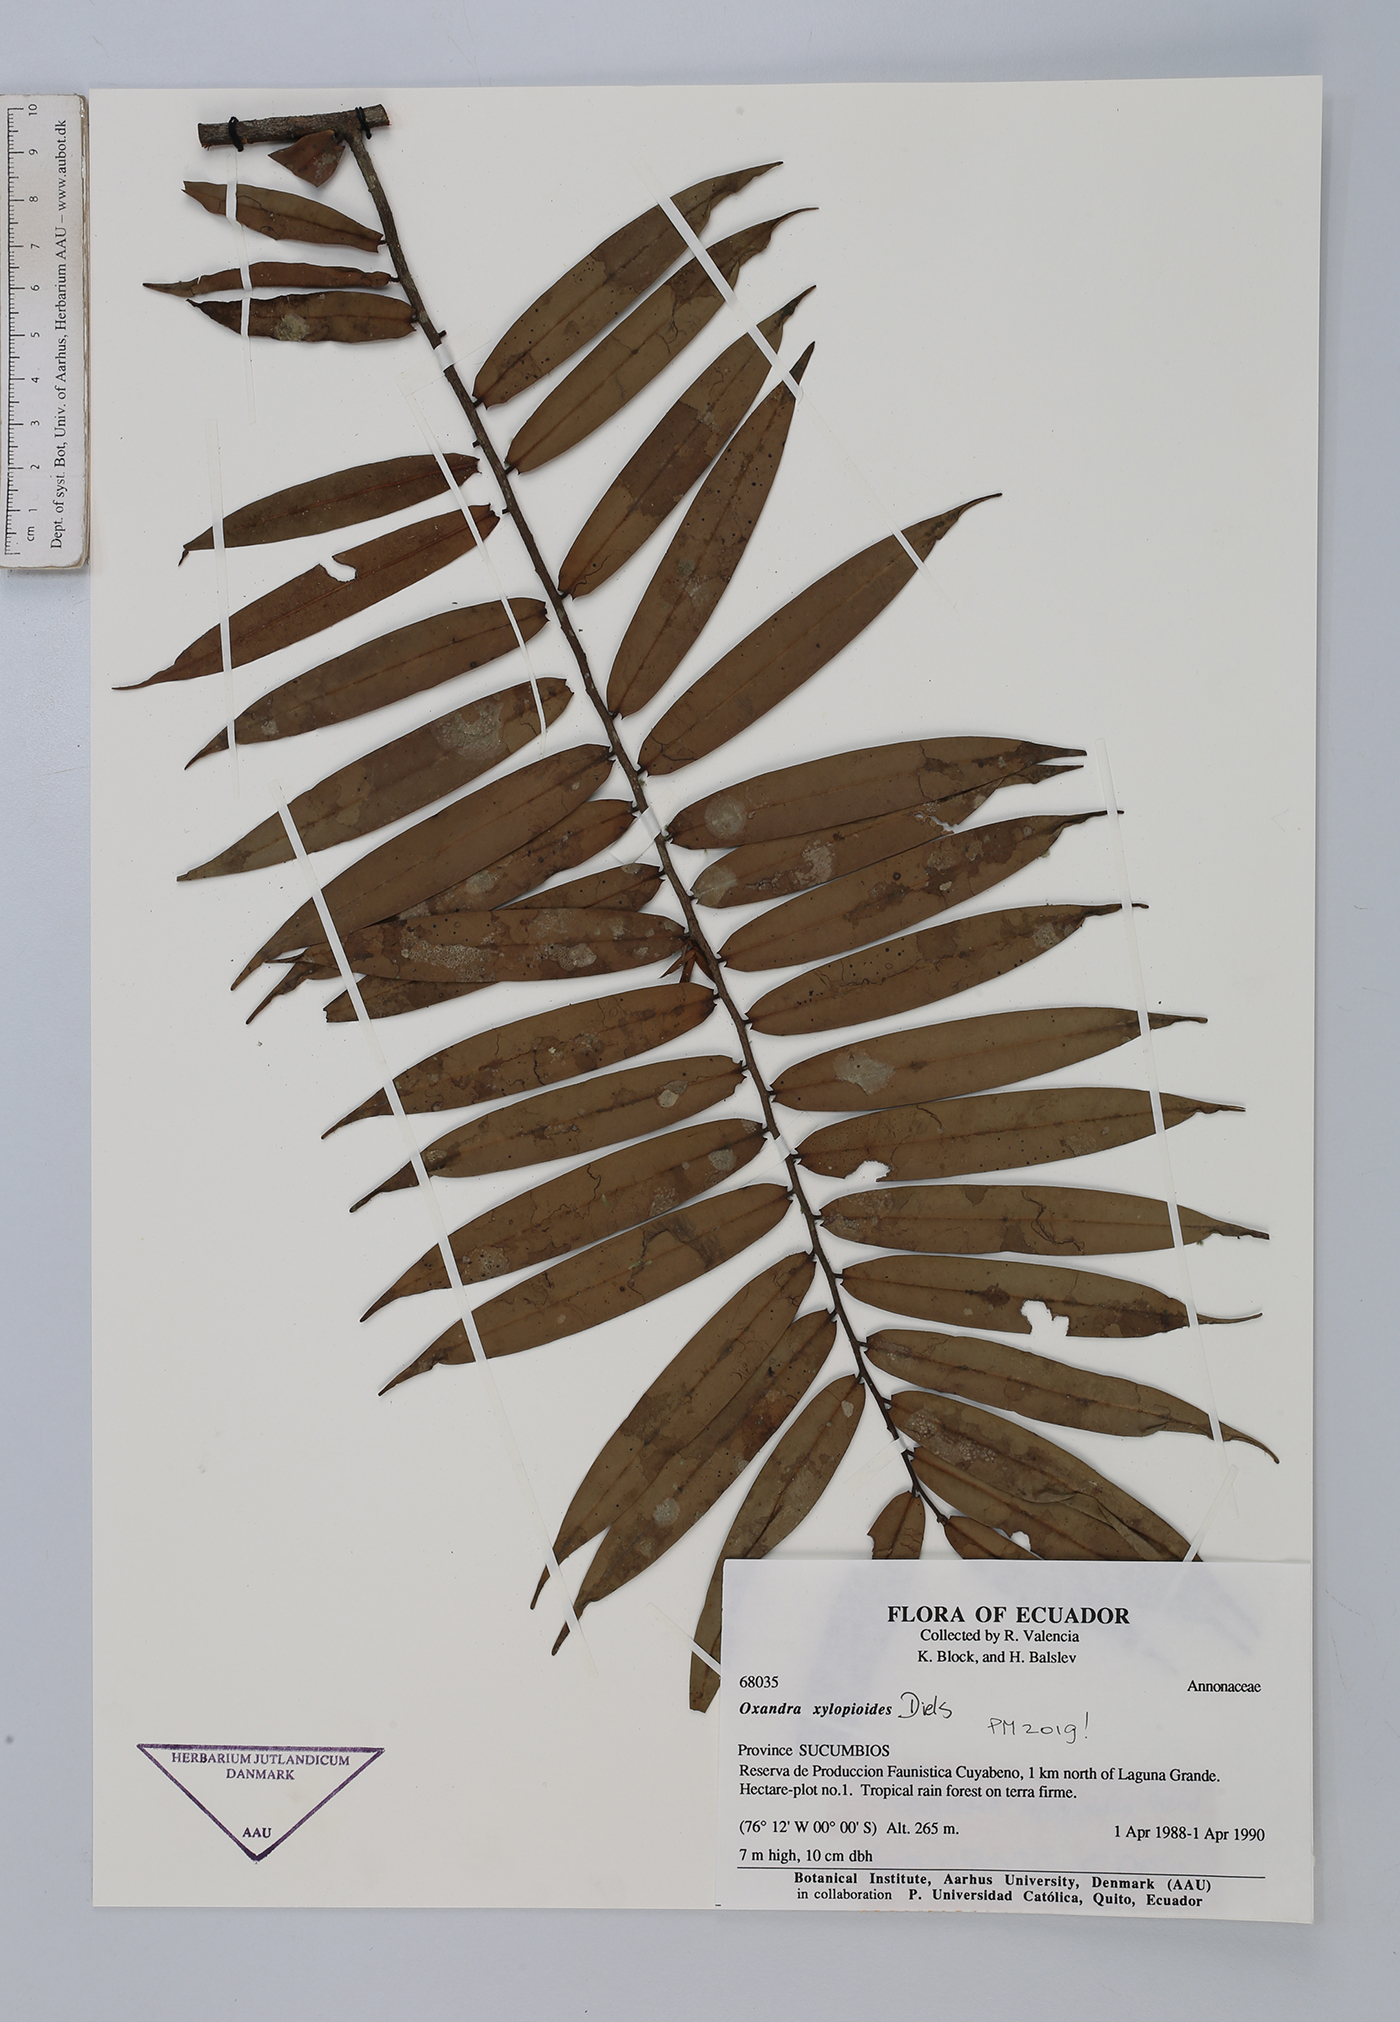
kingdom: Plantae
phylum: Tracheophyta
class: Magnoliopsida
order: Magnoliales
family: Annonaceae
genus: Oxandra
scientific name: Oxandra xylopioides
